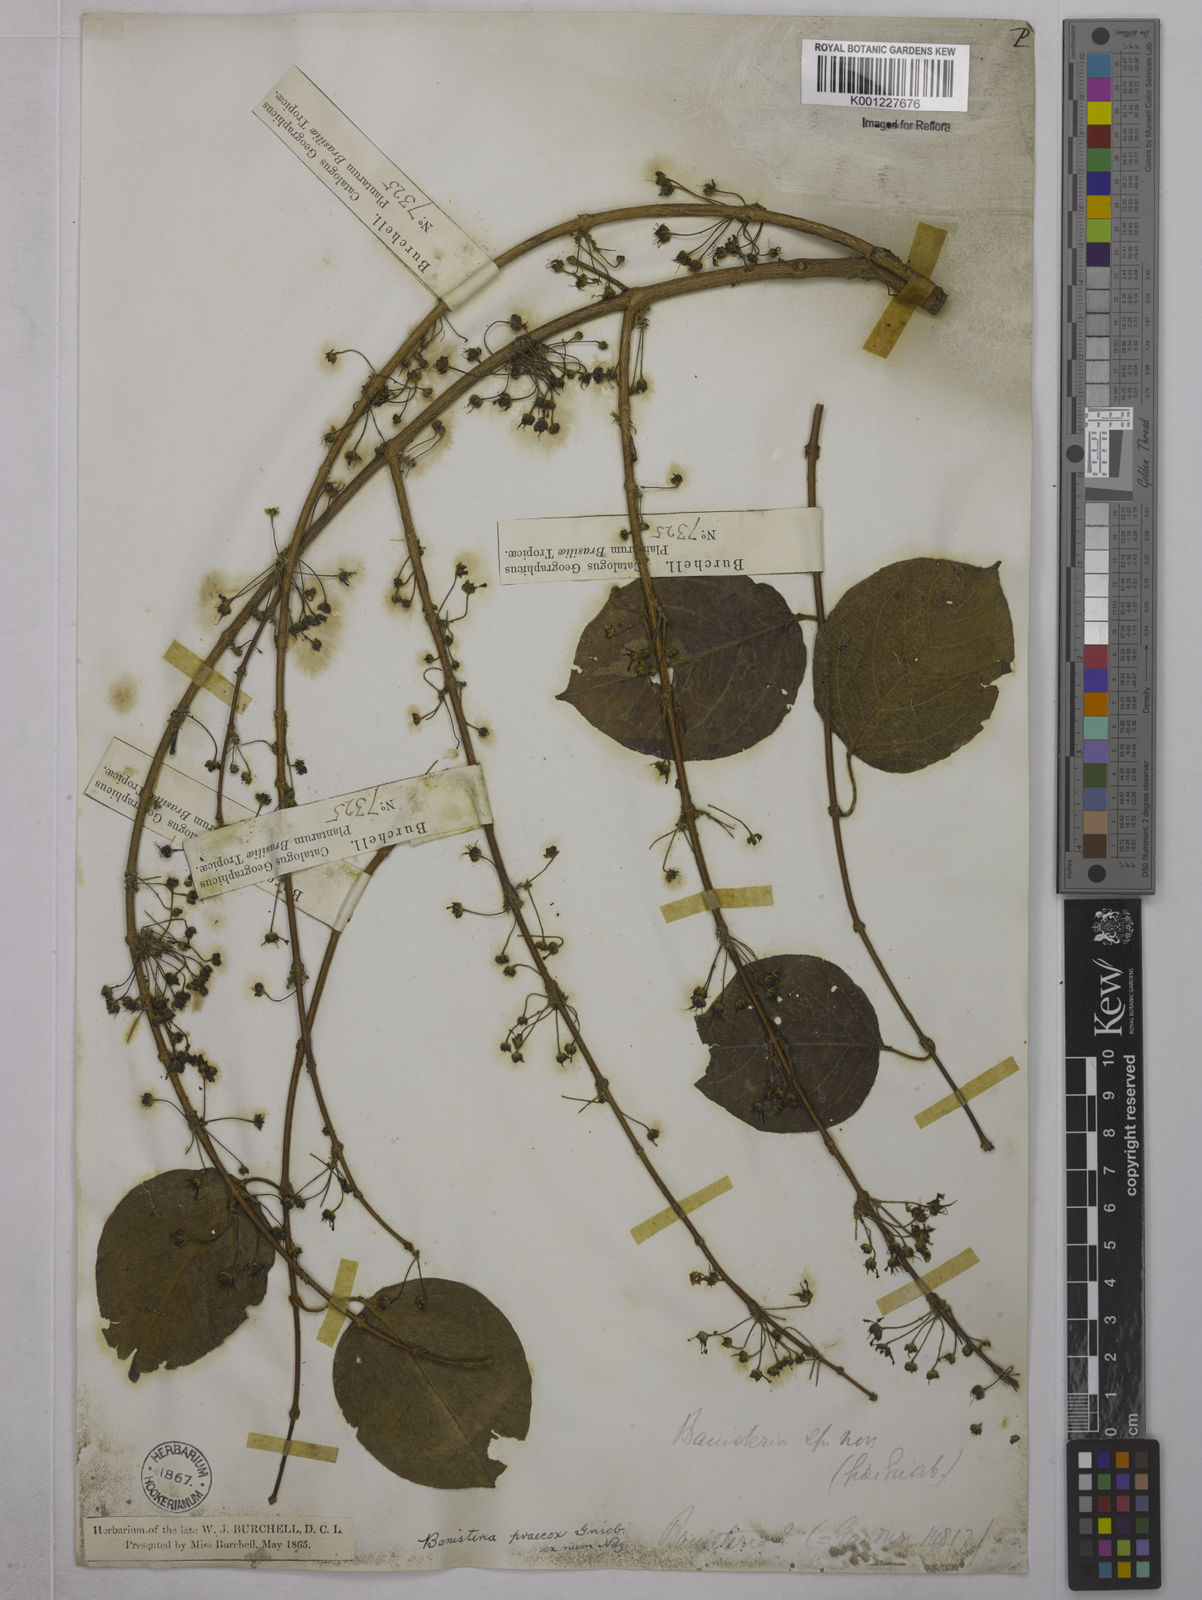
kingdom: Plantae
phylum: Tracheophyta
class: Magnoliopsida
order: Malpighiales
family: Malpighiaceae
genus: Diplopterys
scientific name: Diplopterys lutea
